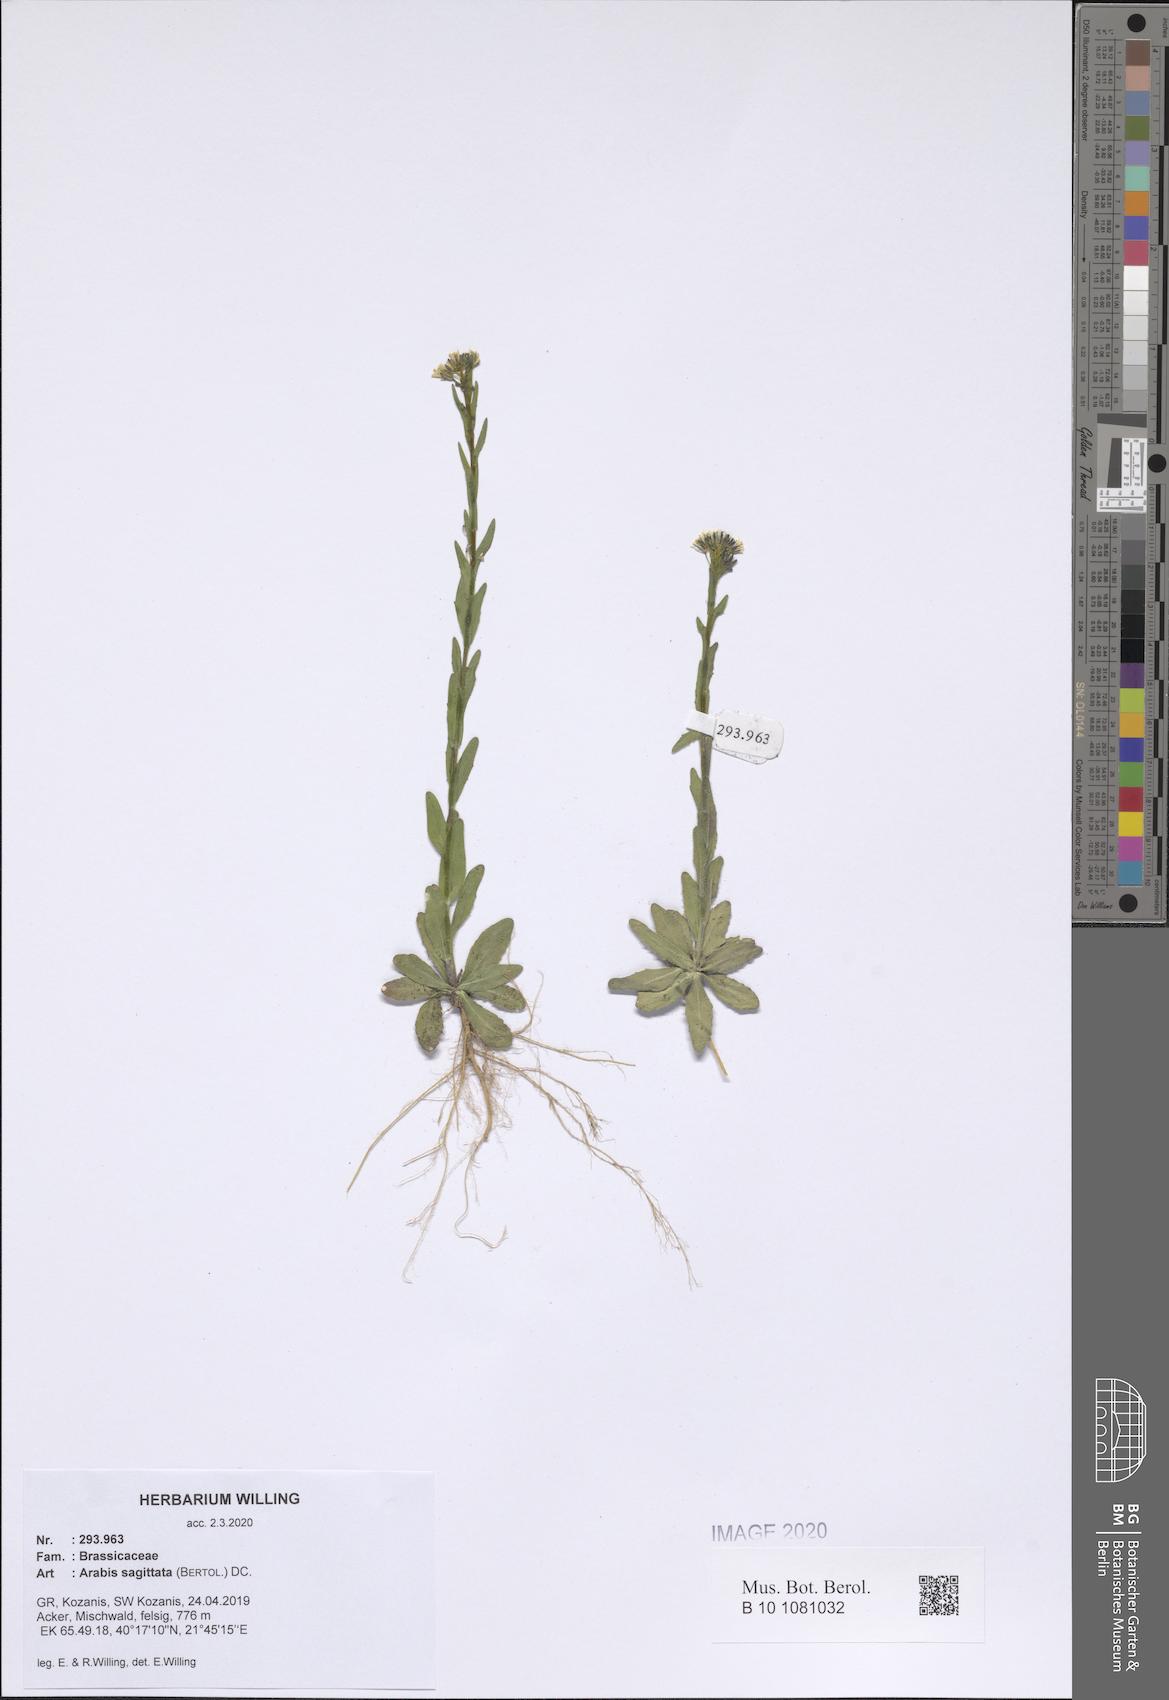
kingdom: Plantae
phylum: Tracheophyta
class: Magnoliopsida
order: Brassicales
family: Brassicaceae
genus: Arabis
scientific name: Arabis sagittata
